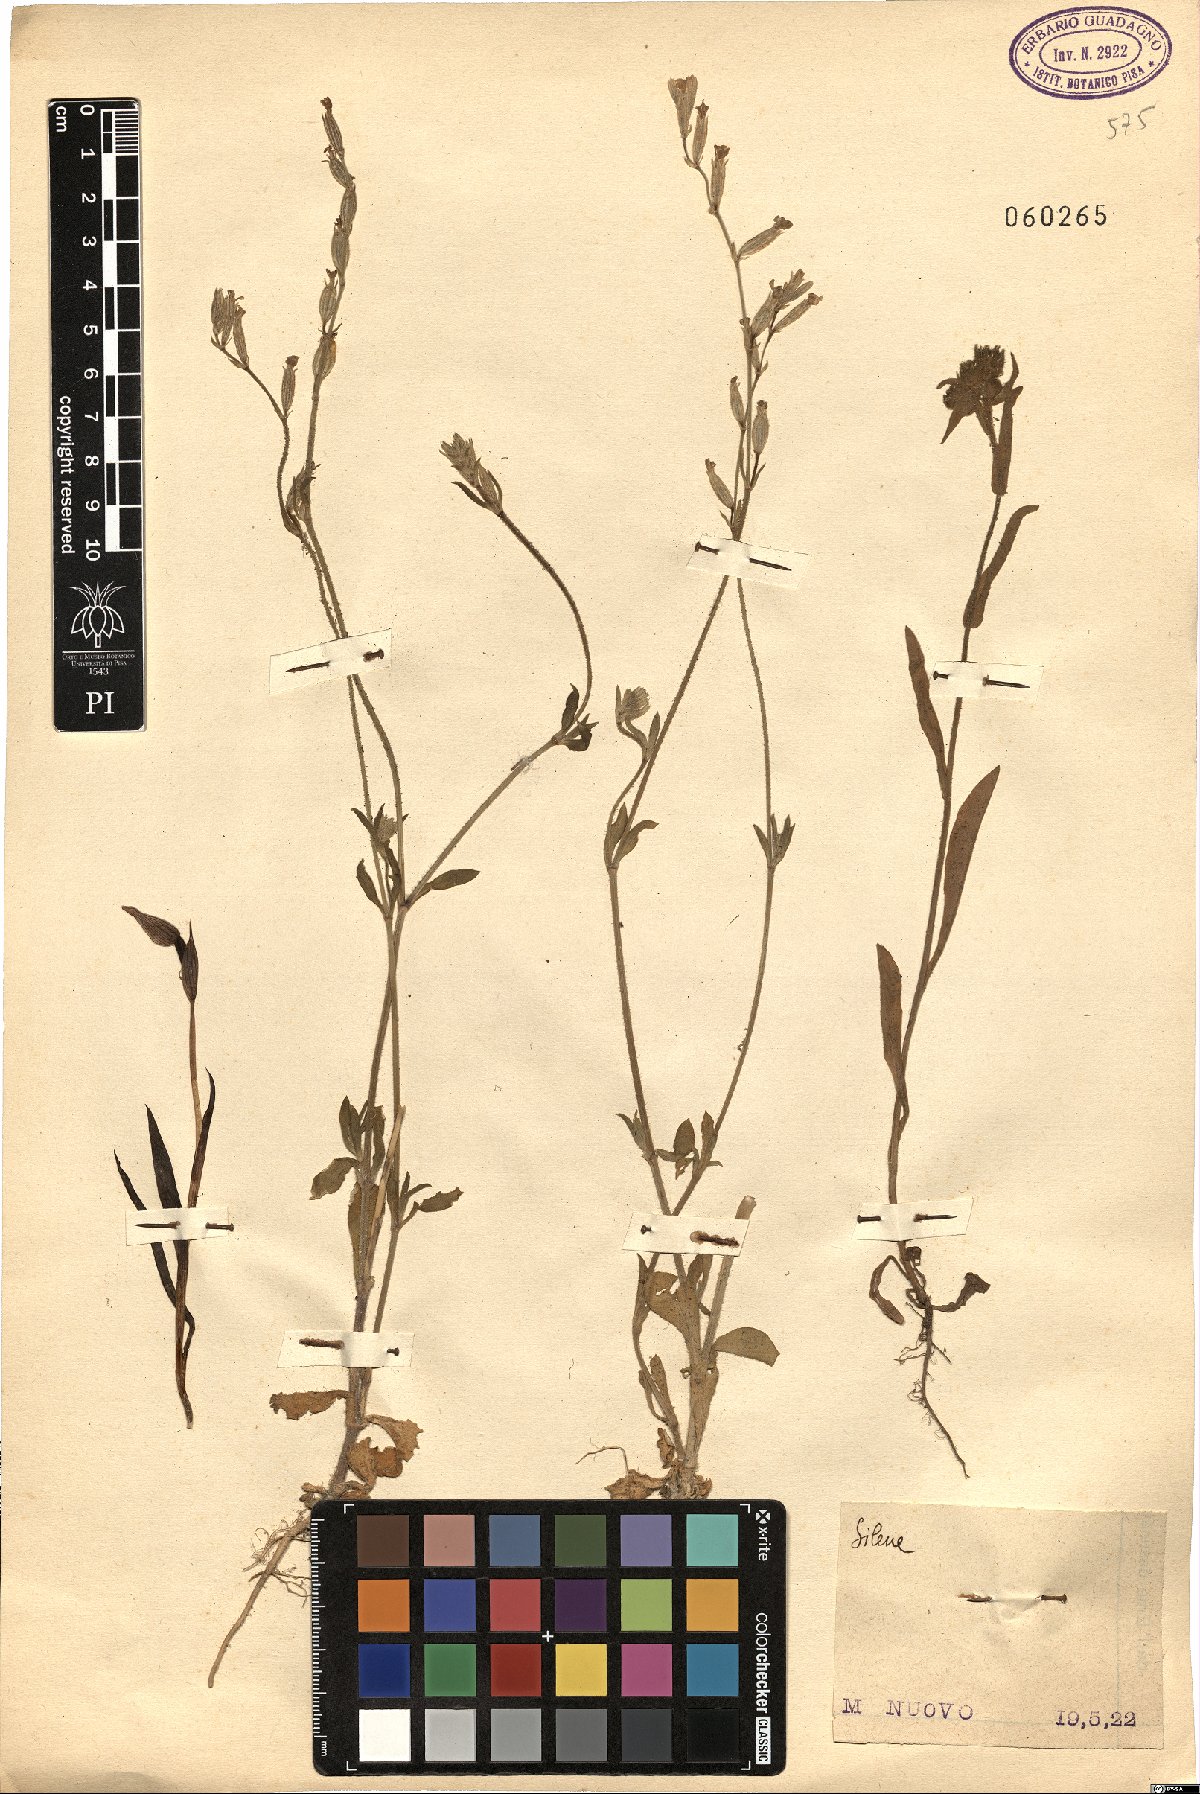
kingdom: Plantae
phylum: Tracheophyta
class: Magnoliopsida
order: Caryophyllales
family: Caryophyllaceae
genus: Silene
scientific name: Silene
